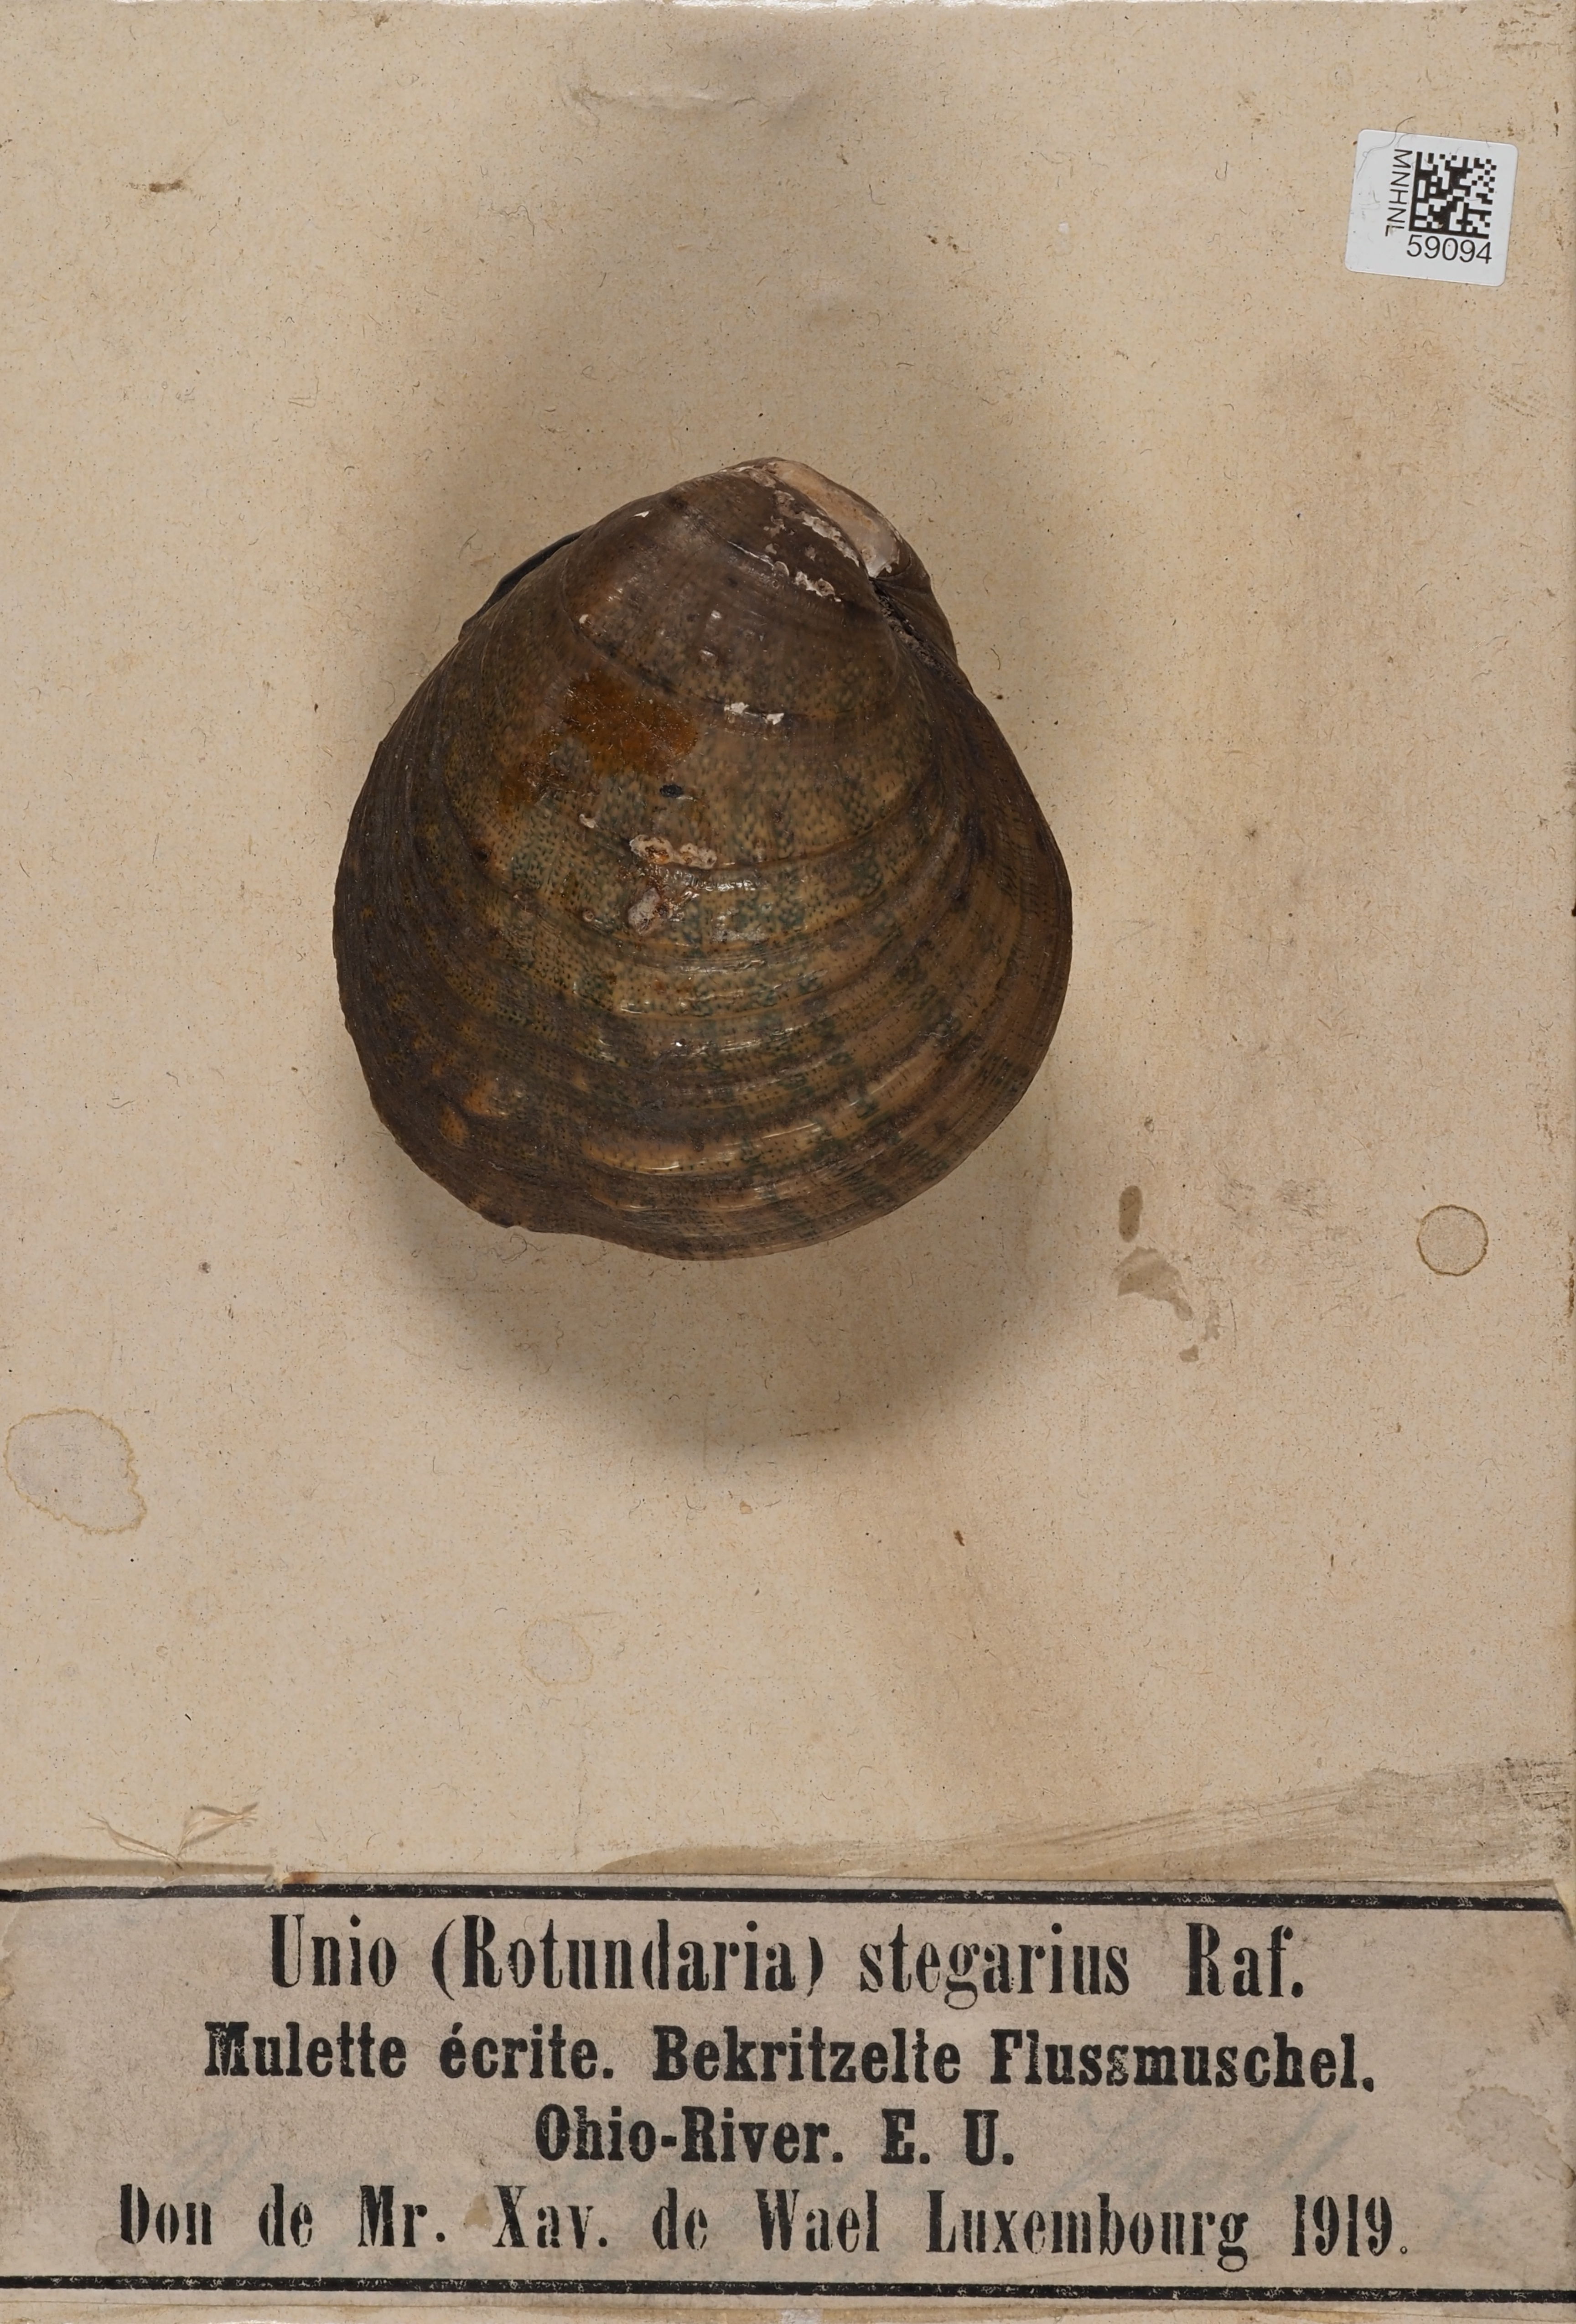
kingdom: Animalia
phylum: Mollusca
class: Bivalvia
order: Unionida
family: Unionidae
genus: Unio
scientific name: Unio
